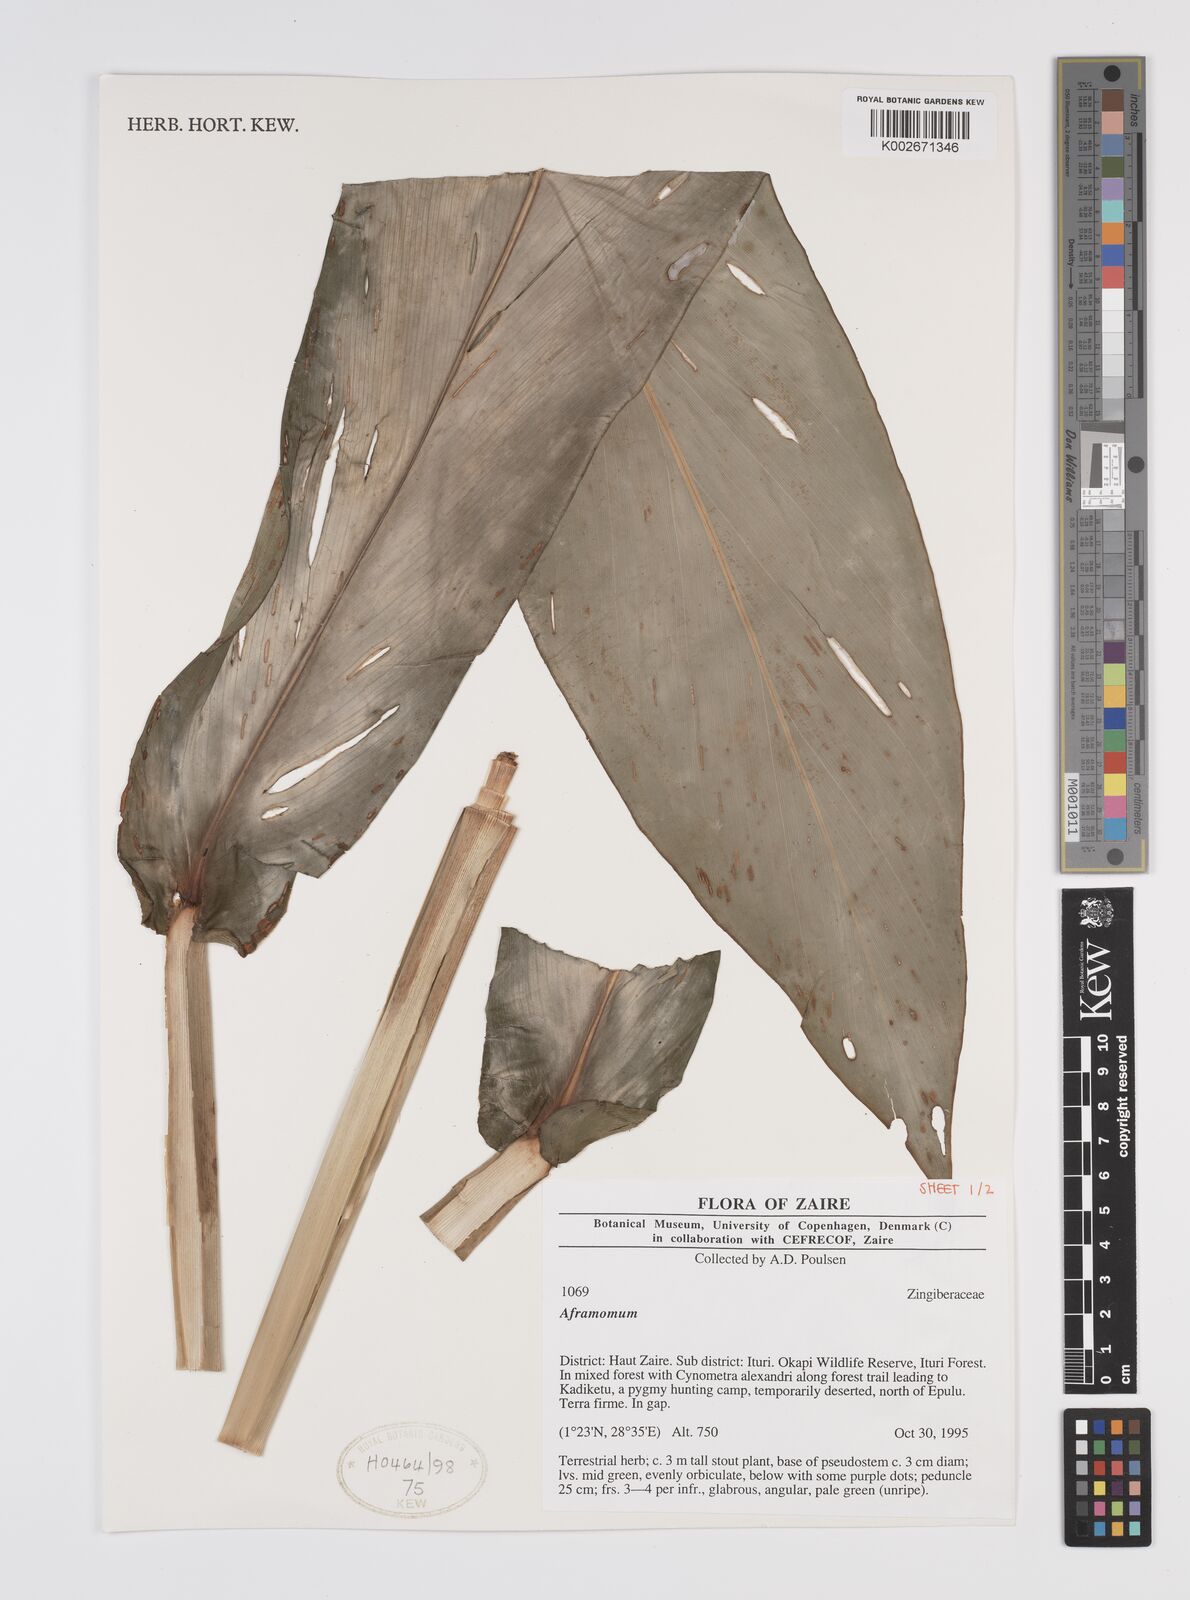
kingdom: Plantae
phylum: Tracheophyta
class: Liliopsida
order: Zingiberales
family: Zingiberaceae
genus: Aframomum
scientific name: Aframomum
